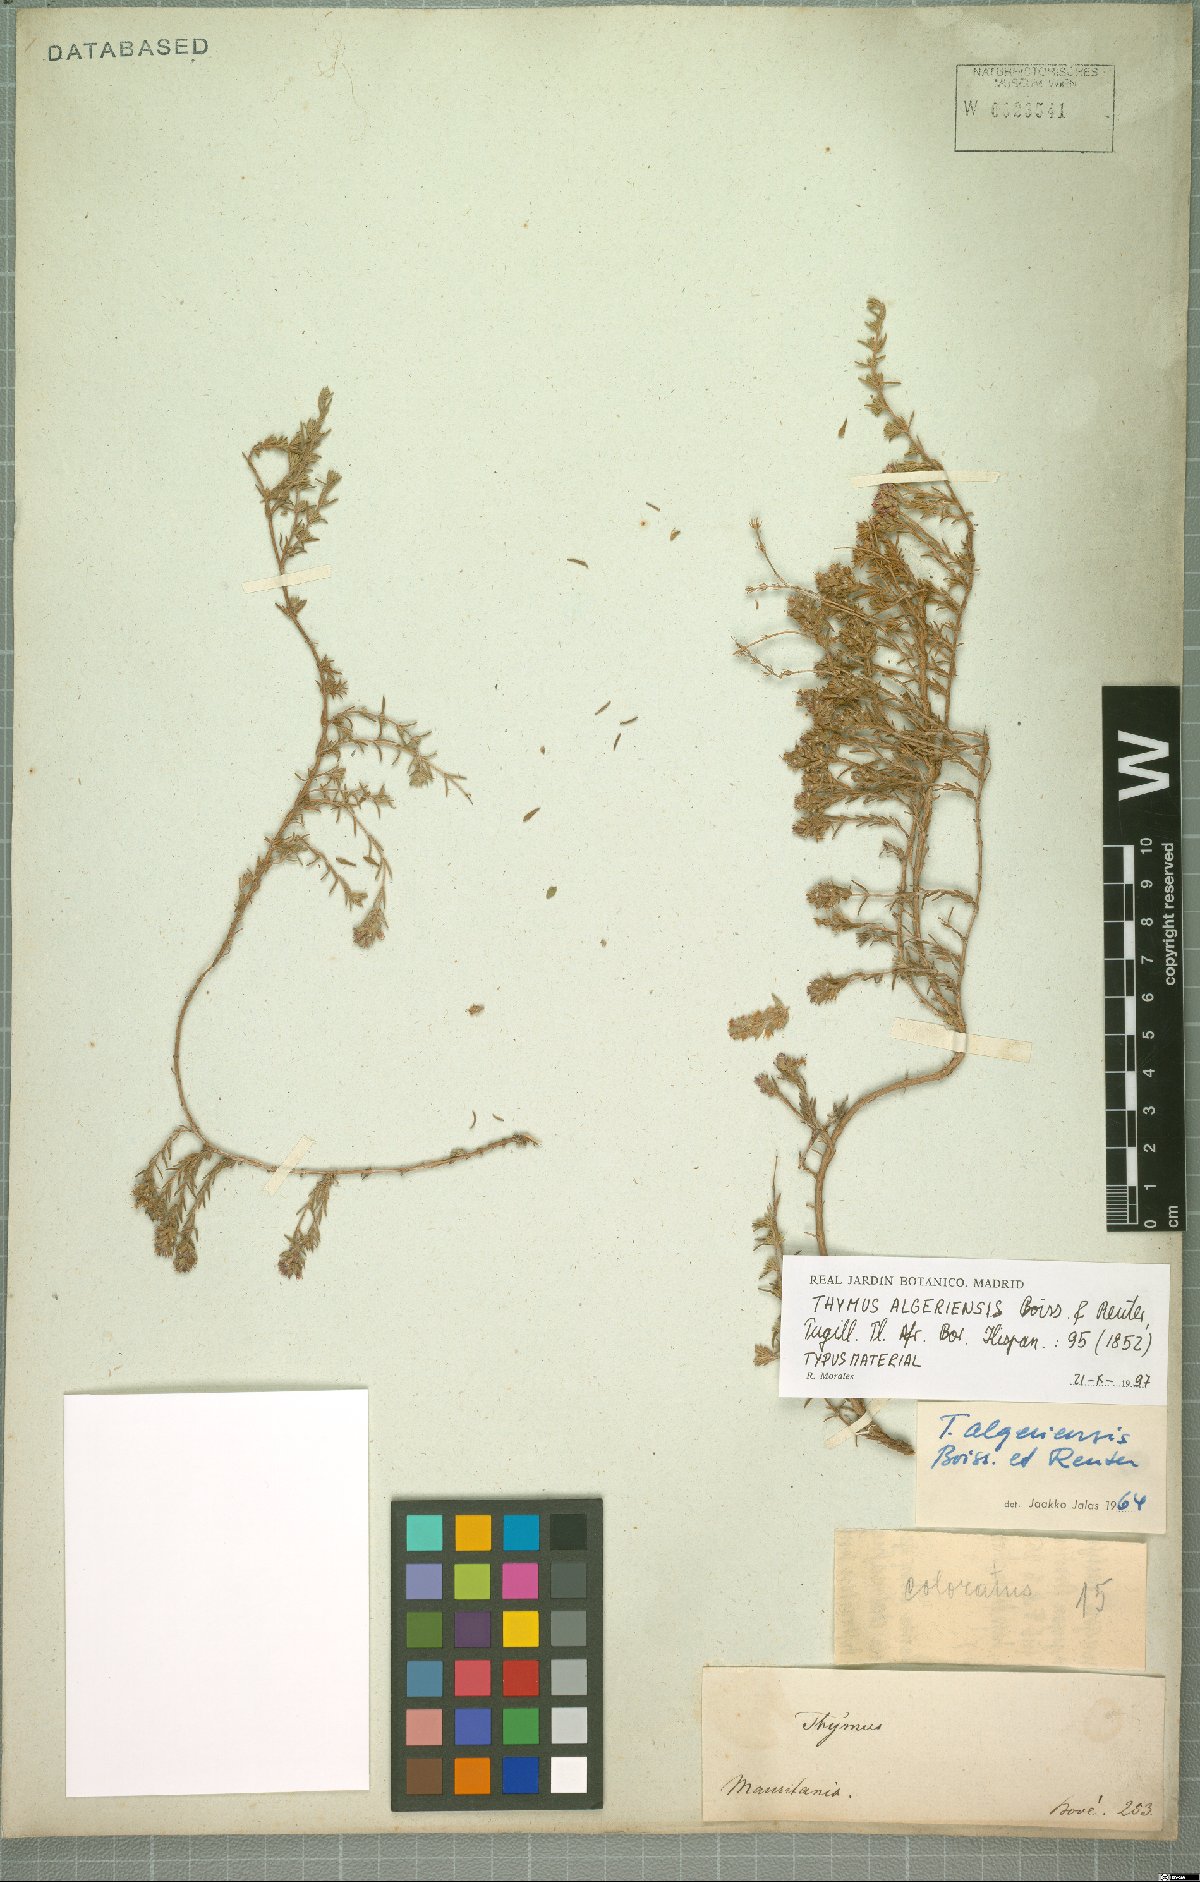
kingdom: Plantae
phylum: Tracheophyta
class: Magnoliopsida
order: Lamiales
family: Lamiaceae
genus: Thymus
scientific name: Thymus algeriensis
